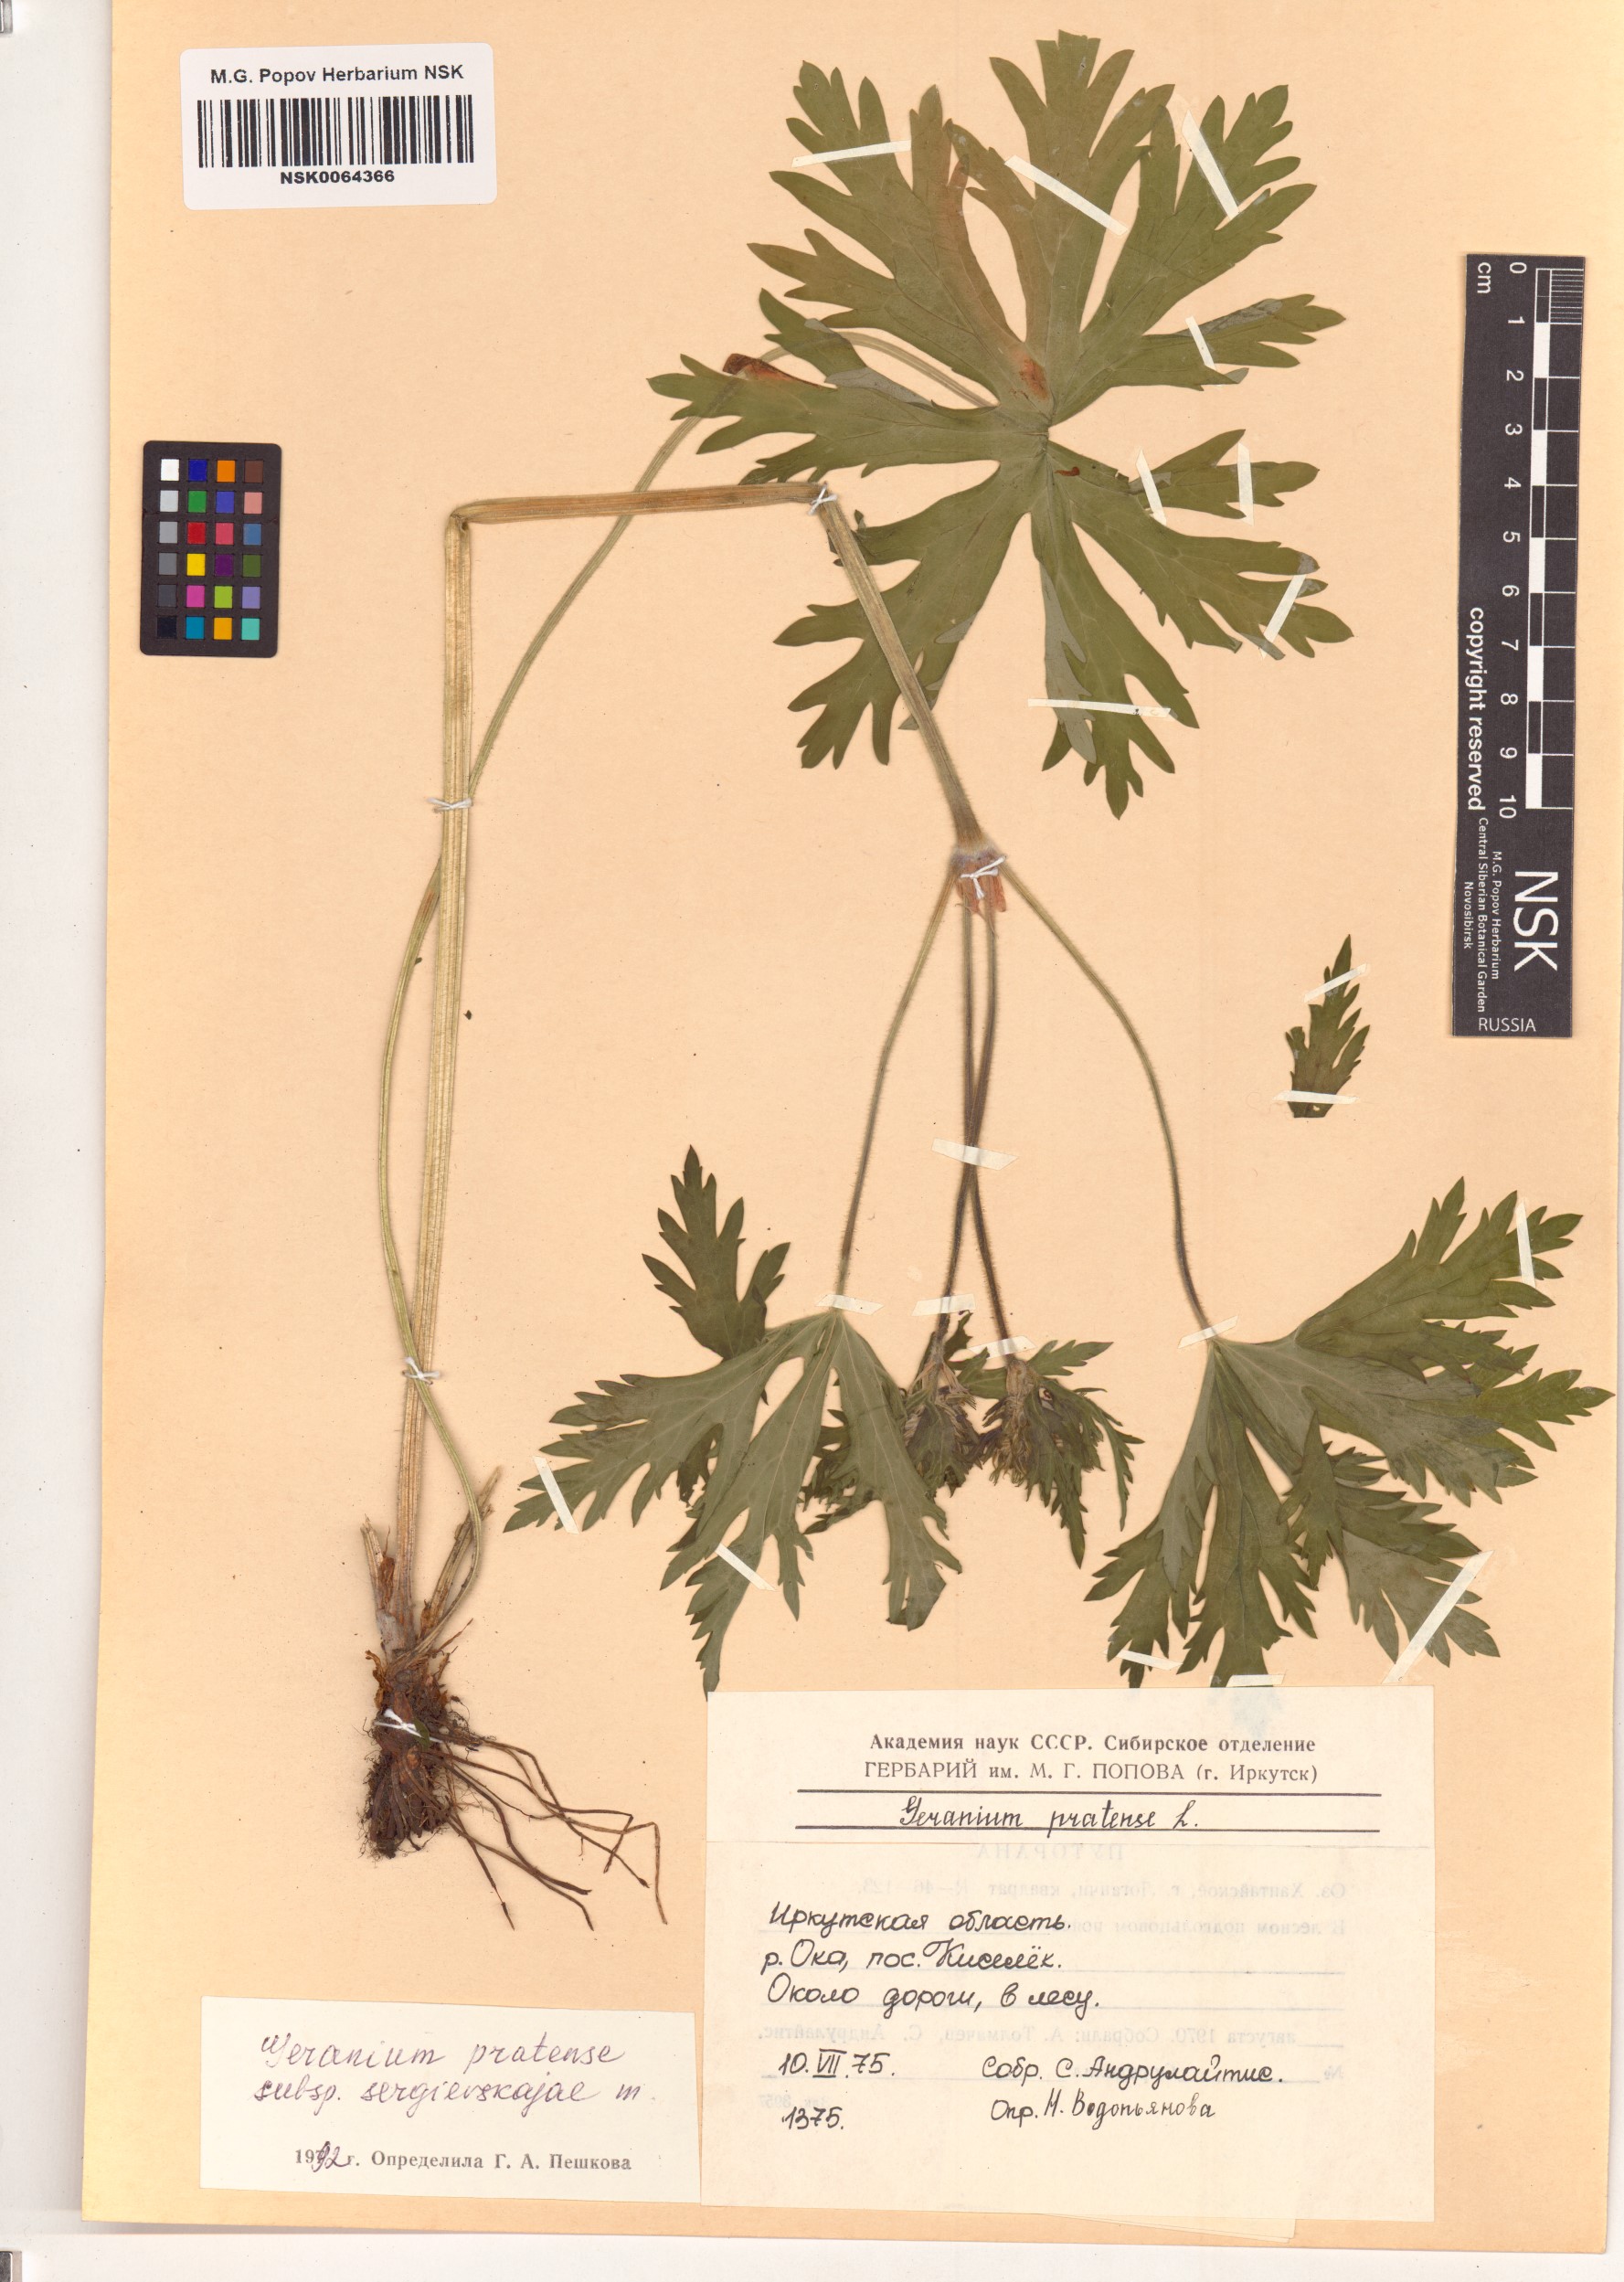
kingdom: Plantae
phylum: Tracheophyta
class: Magnoliopsida
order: Geraniales
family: Geraniaceae
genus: Geranium
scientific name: Geranium pratense
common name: Meadow crane's-bill
